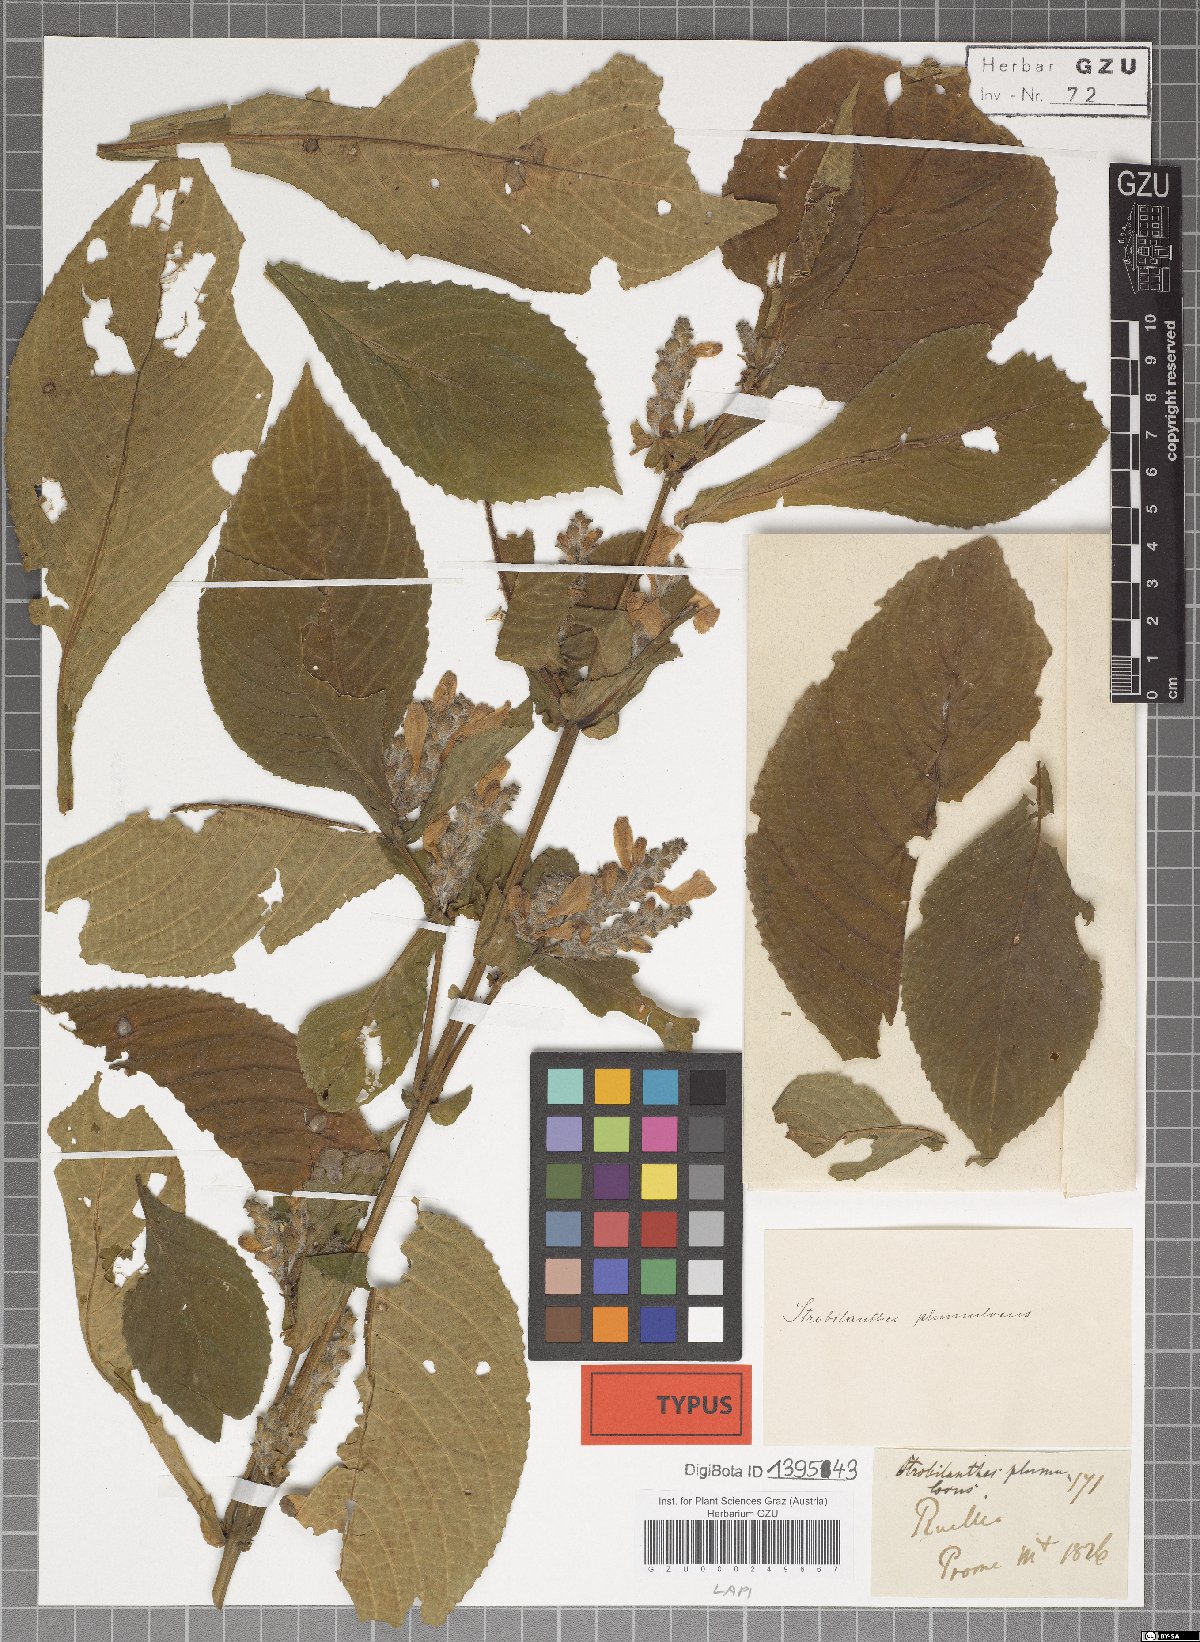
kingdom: Plantae
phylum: Tracheophyta
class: Magnoliopsida
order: Lamiales
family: Acanthaceae
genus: Strobilanthes
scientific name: Strobilanthes auriculata
